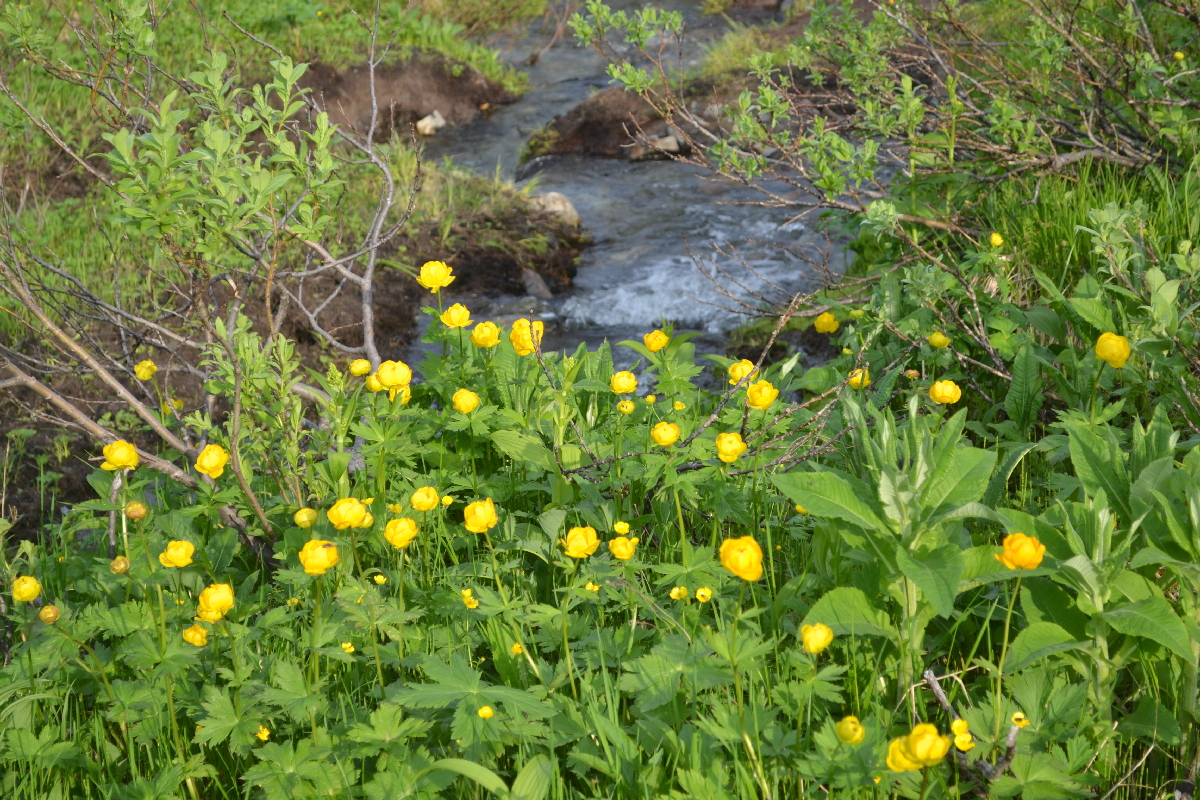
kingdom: Plantae
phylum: Tracheophyta
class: Magnoliopsida
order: Ranunculales
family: Ranunculaceae
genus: Trollius
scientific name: Trollius apertus
